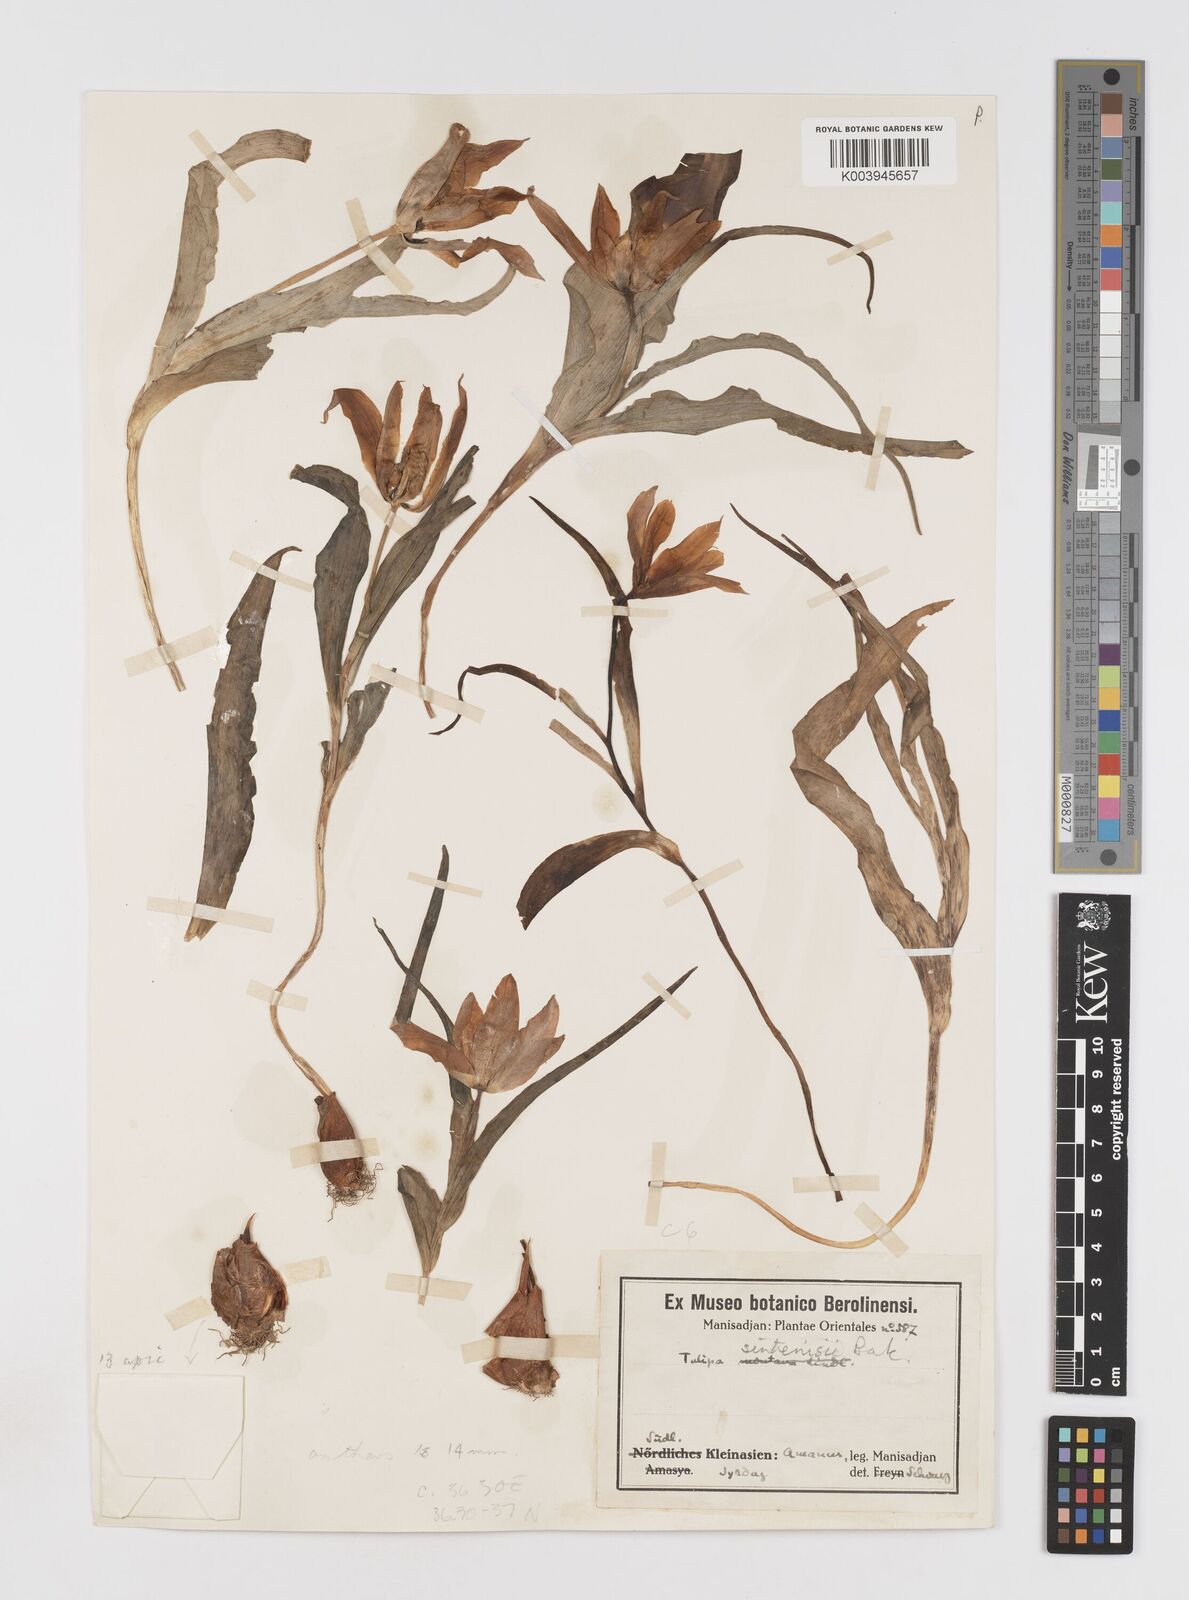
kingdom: Plantae
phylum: Tracheophyta
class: Liliopsida
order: Liliales
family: Liliaceae
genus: Tulipa
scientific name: Tulipa aleppensis
